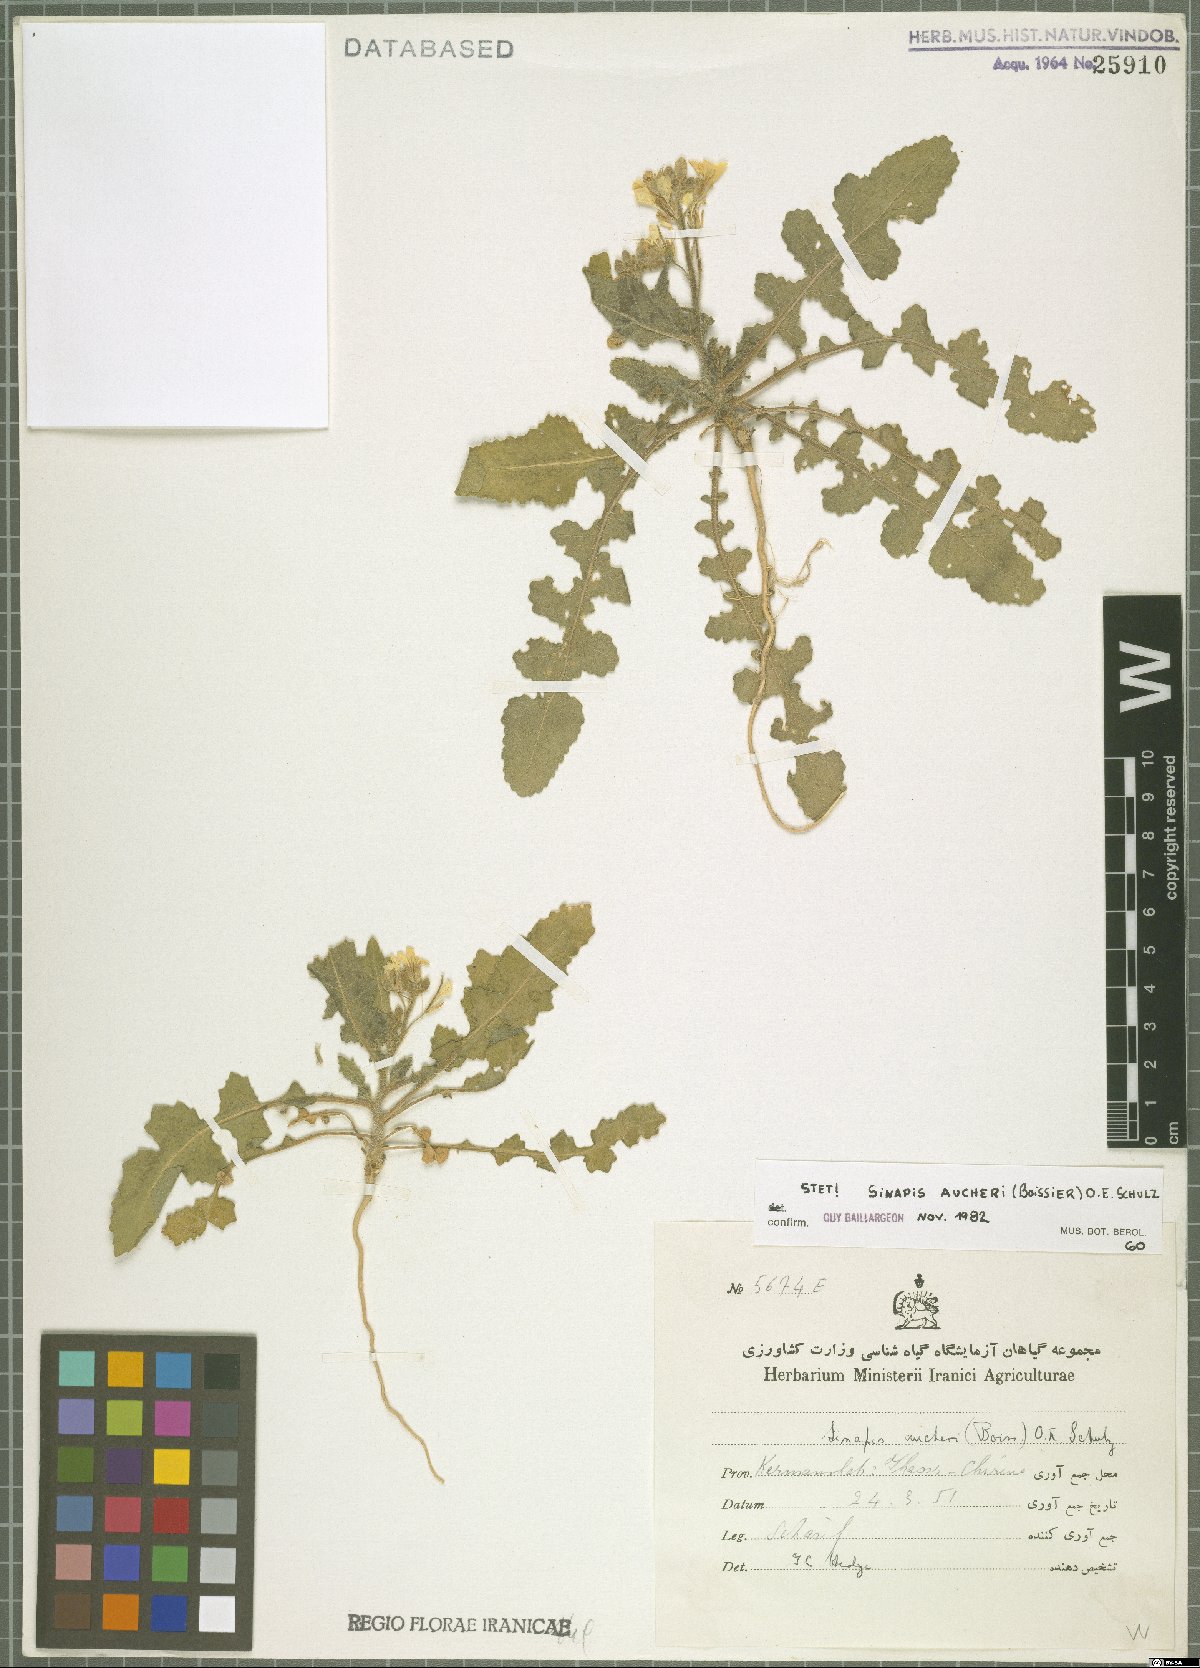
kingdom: Plantae
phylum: Tracheophyta
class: Magnoliopsida
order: Brassicales
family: Brassicaceae
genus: Brassica
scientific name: Brassica aucheri
